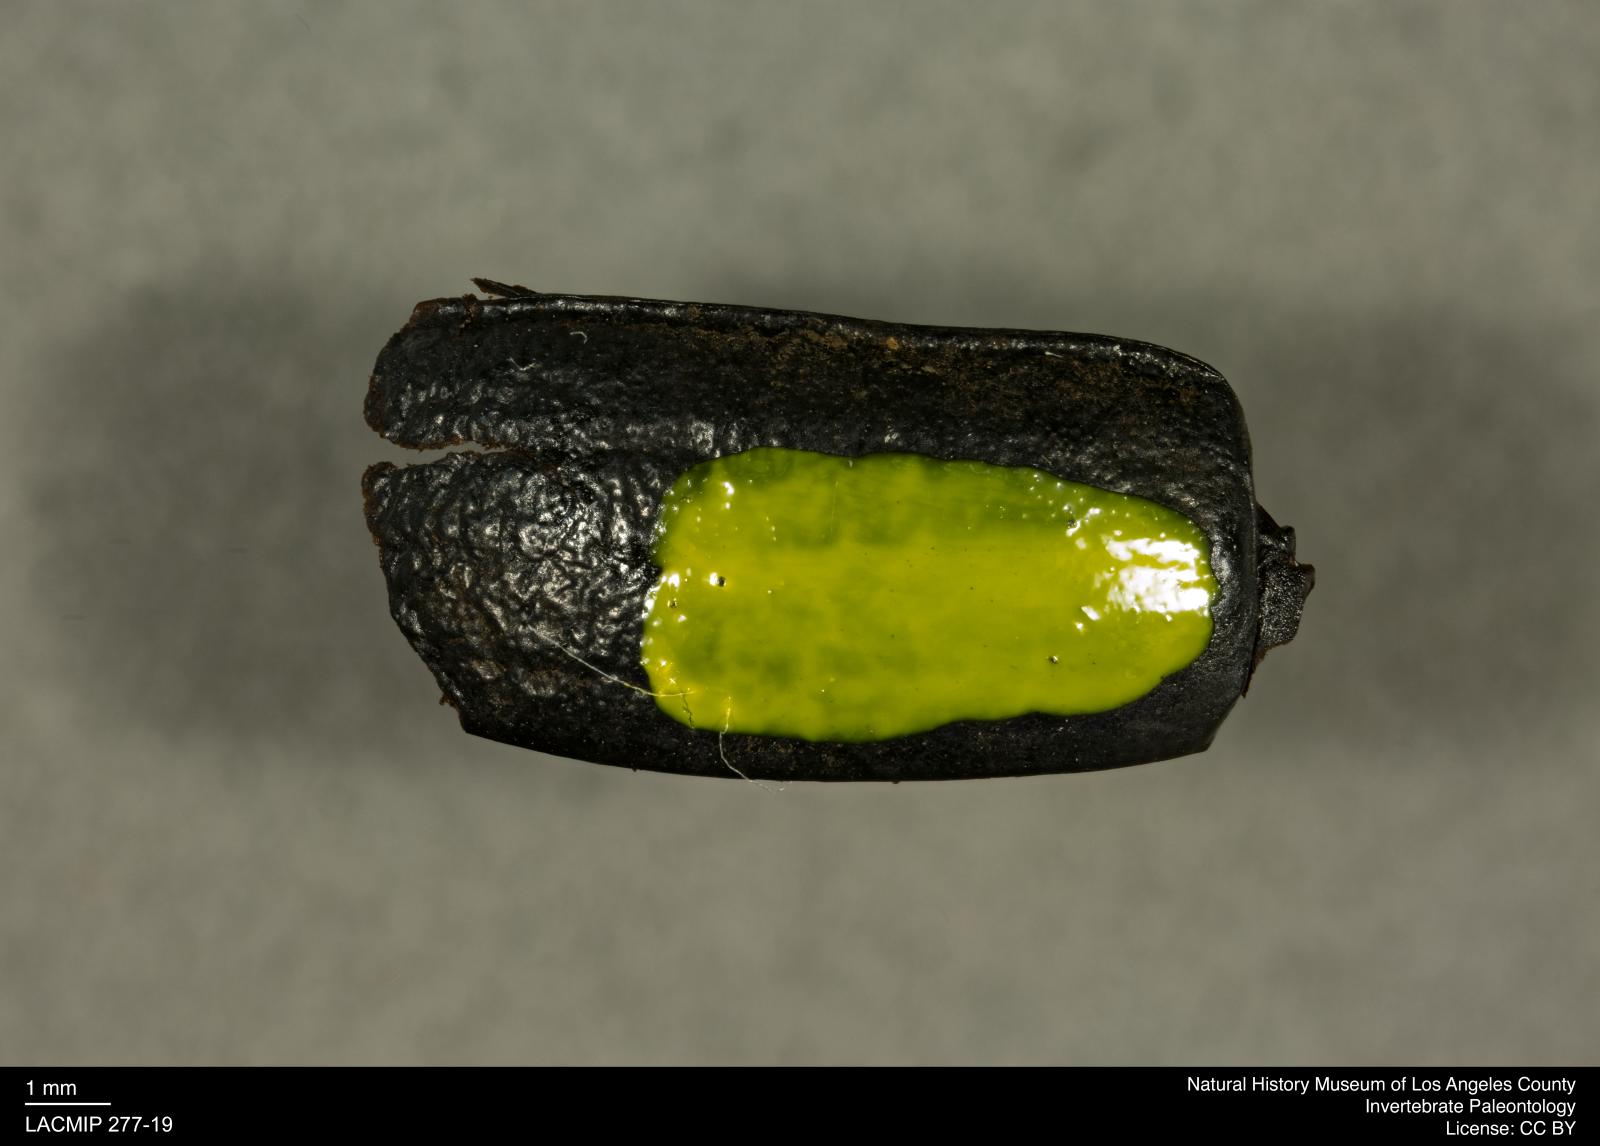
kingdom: Animalia
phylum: Arthropoda
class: Insecta
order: Coleoptera
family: Tenebrionidae
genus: Coniontis
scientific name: Coniontis abdominalis
